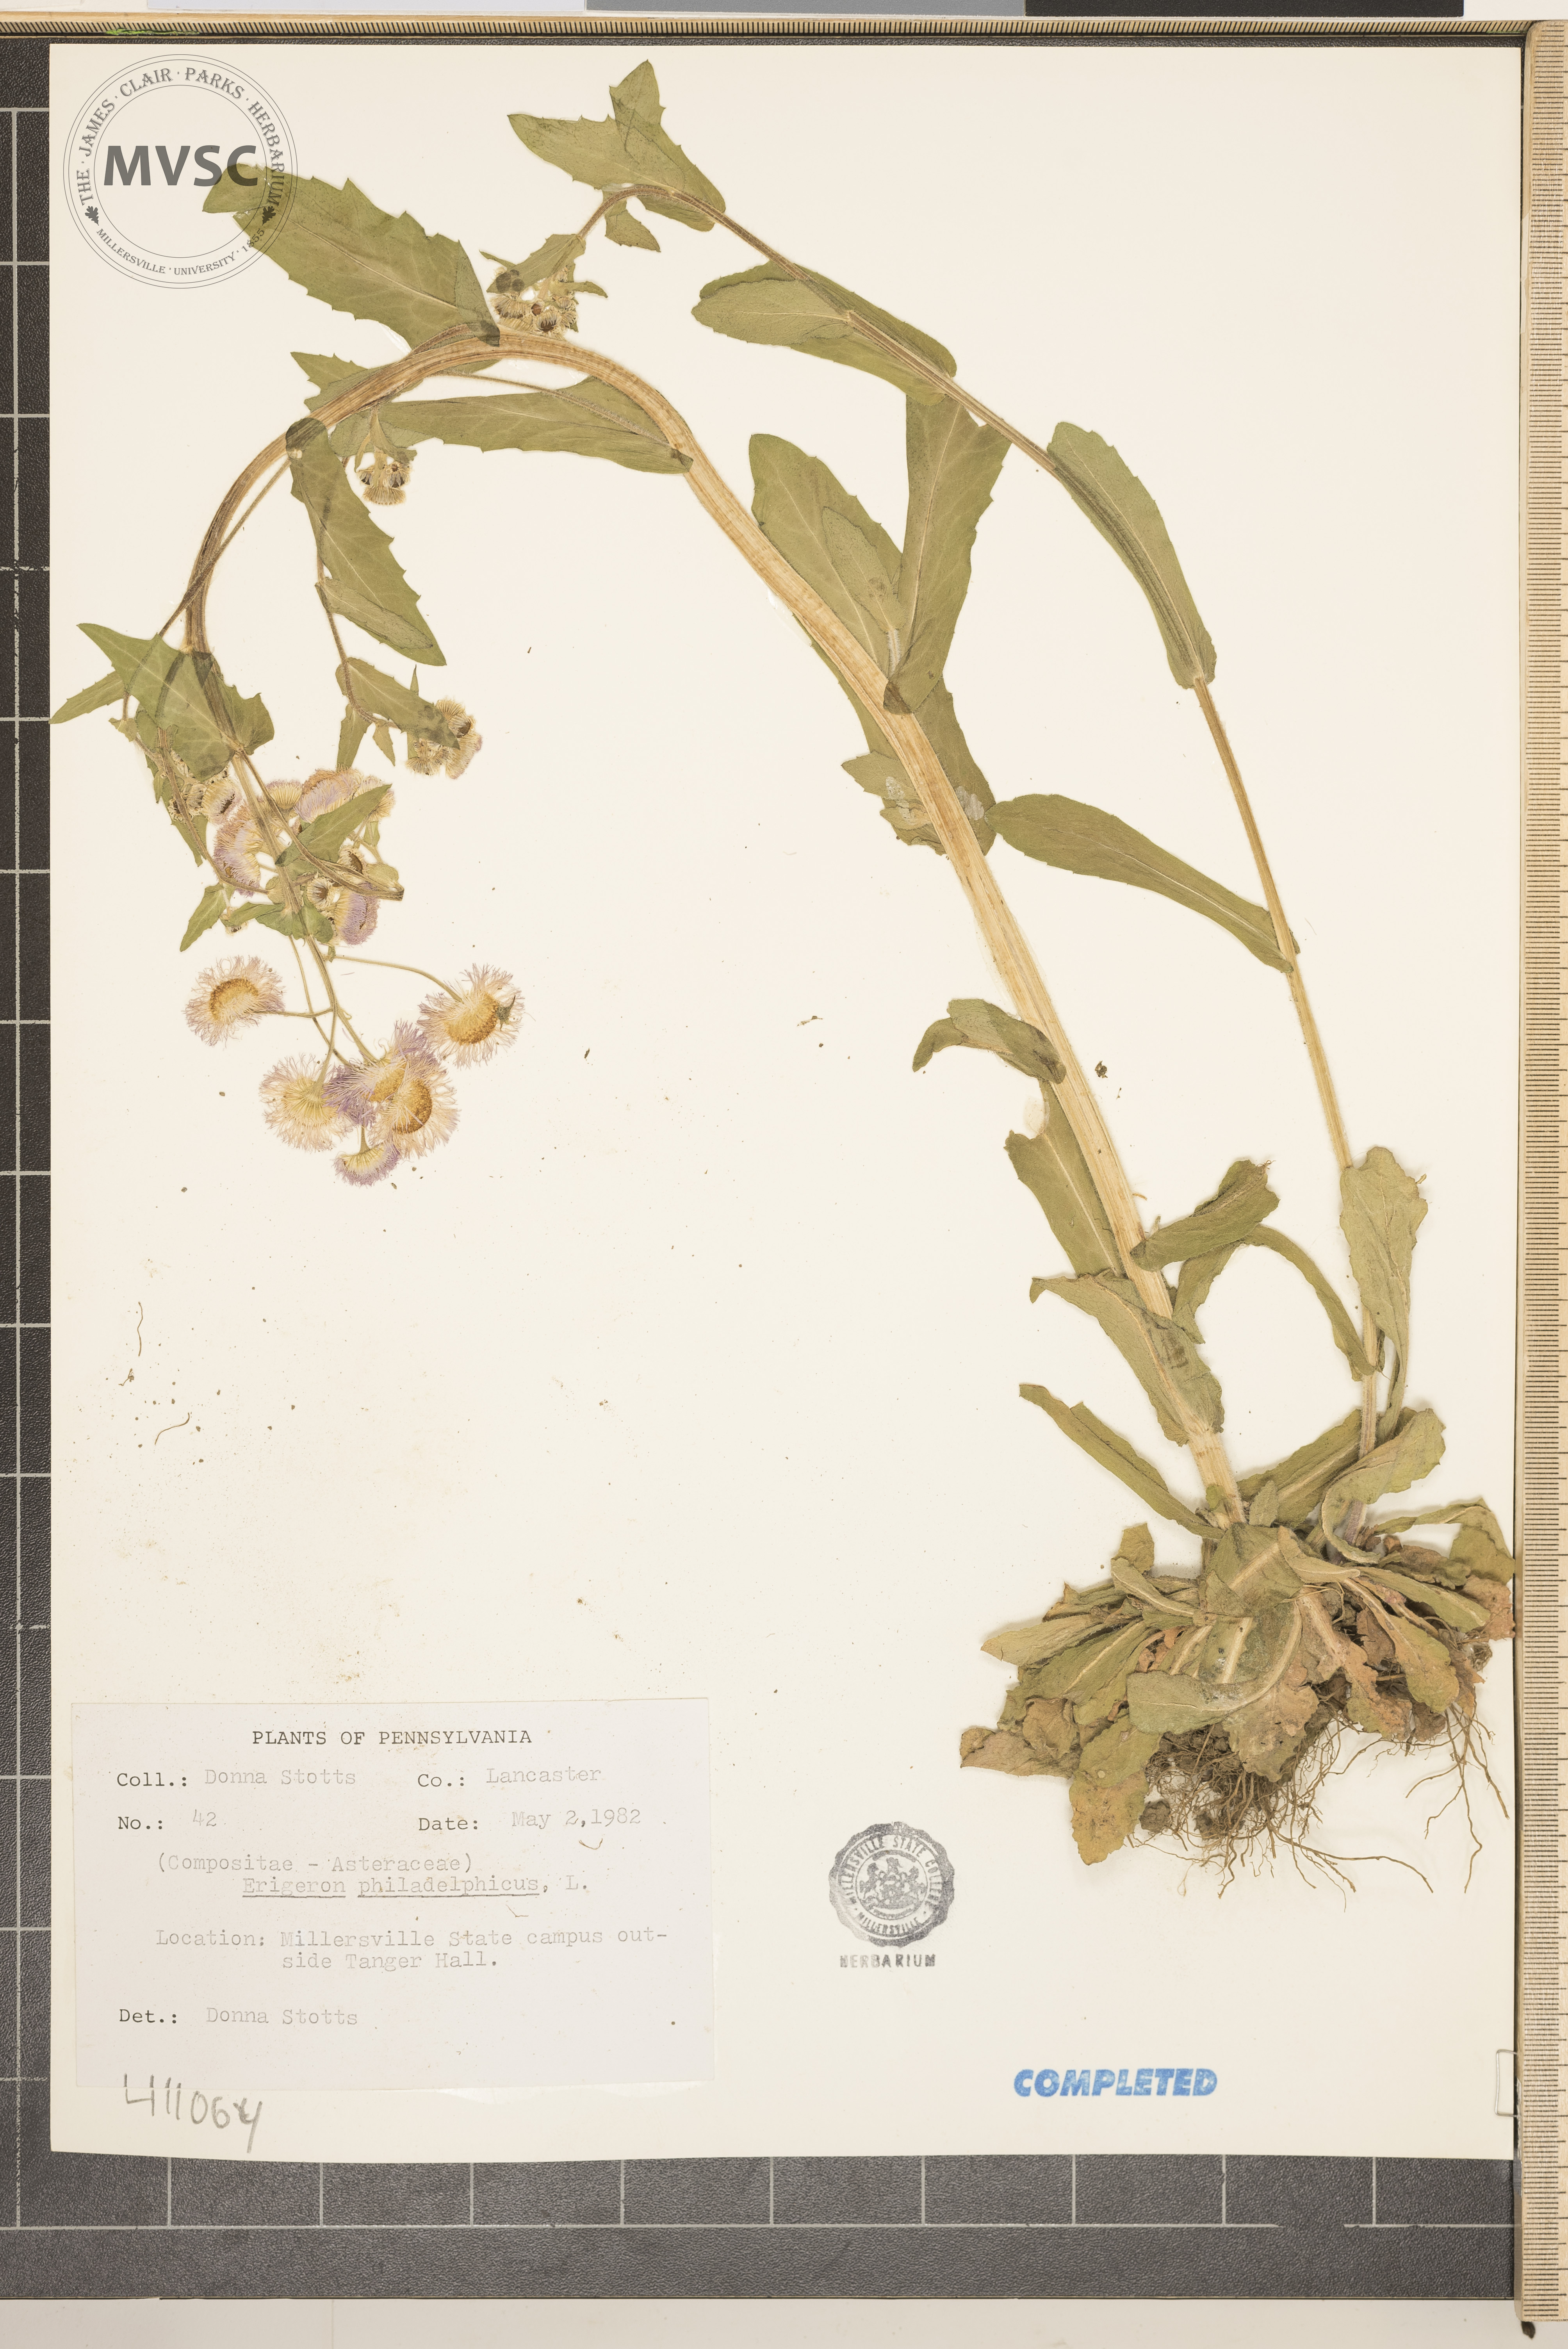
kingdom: Plantae
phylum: Tracheophyta
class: Magnoliopsida
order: Asterales
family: Asteraceae
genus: Erigeron
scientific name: Erigeron philadelphicus
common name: Robin's-plantain
